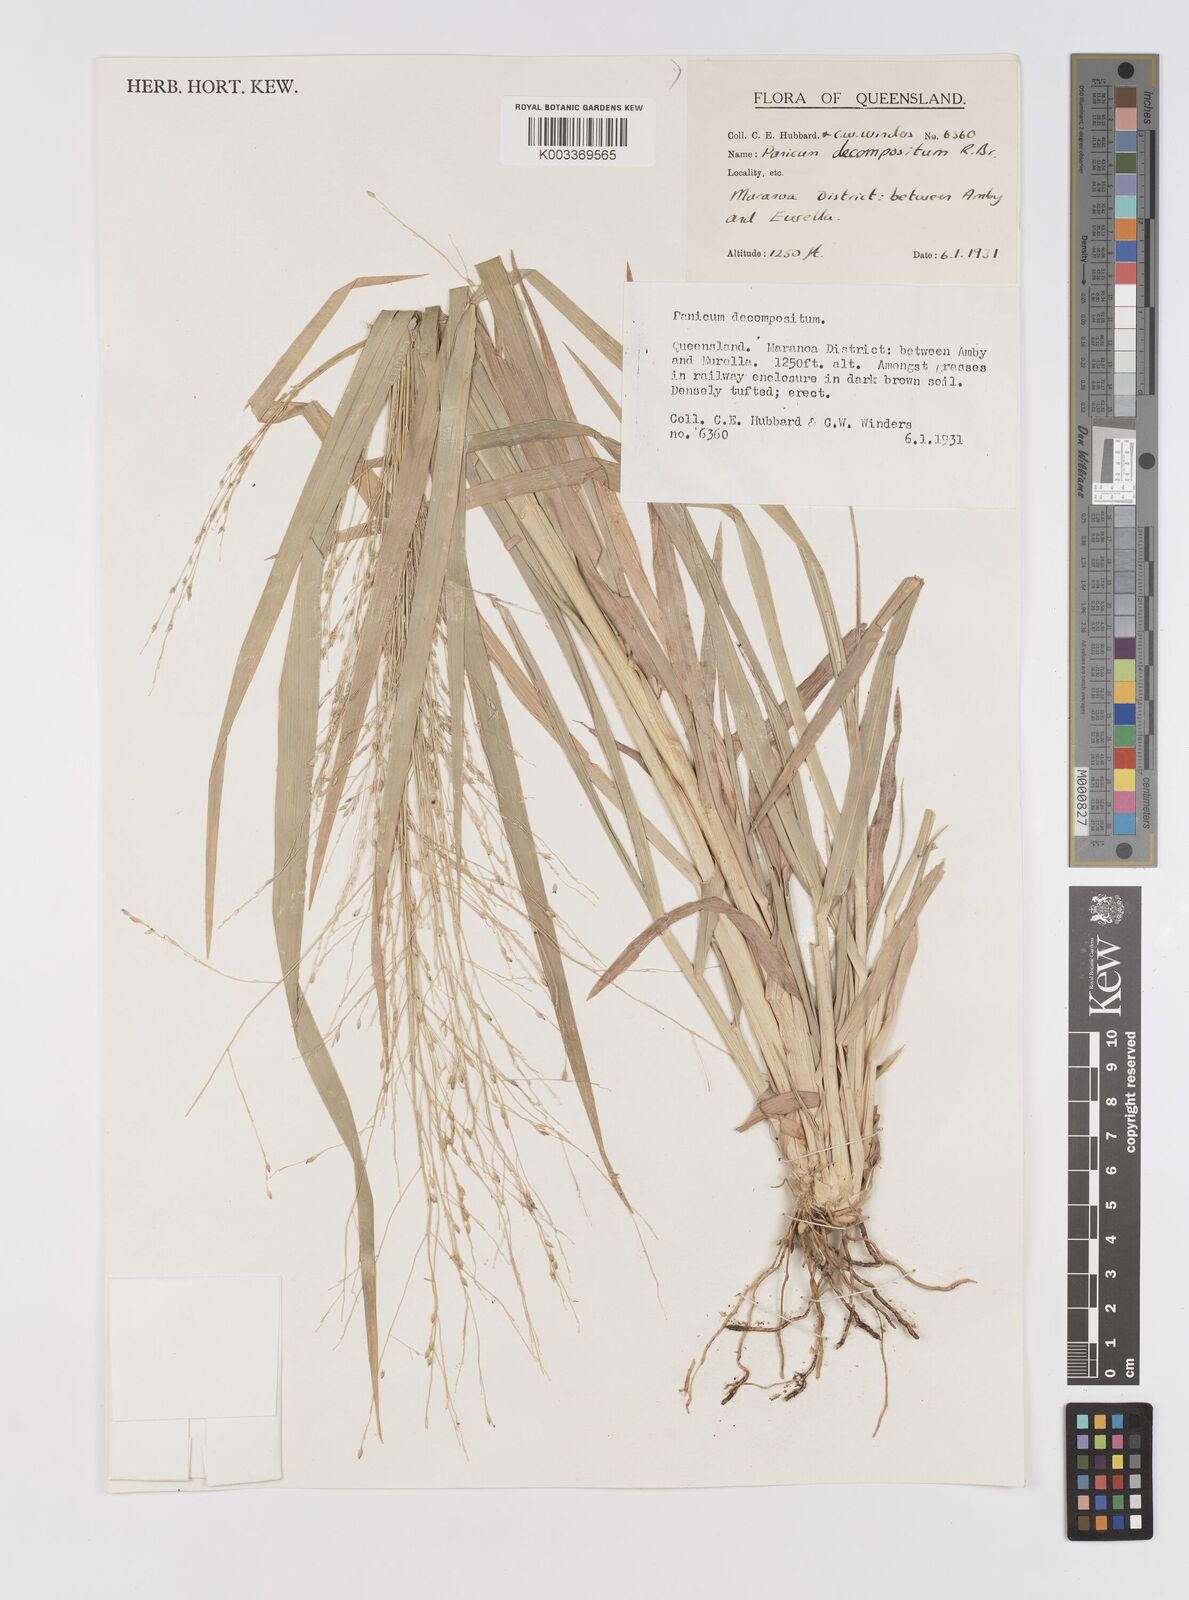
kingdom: Plantae
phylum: Tracheophyta
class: Liliopsida
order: Poales
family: Poaceae
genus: Panicum
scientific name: Panicum decompositum
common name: Australian millet
